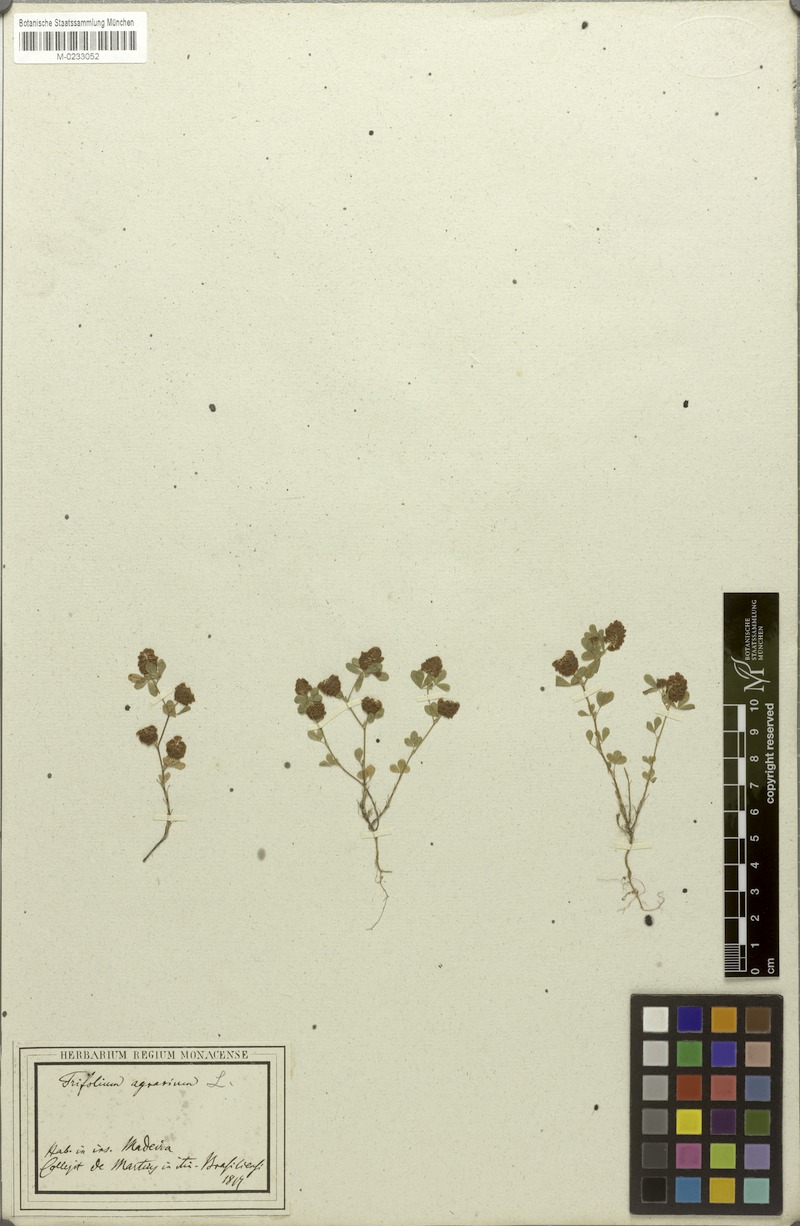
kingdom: Plantae
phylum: Tracheophyta
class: Magnoliopsida
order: Fabales
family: Fabaceae
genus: Trifolium
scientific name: Trifolium campestre
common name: Field clover
